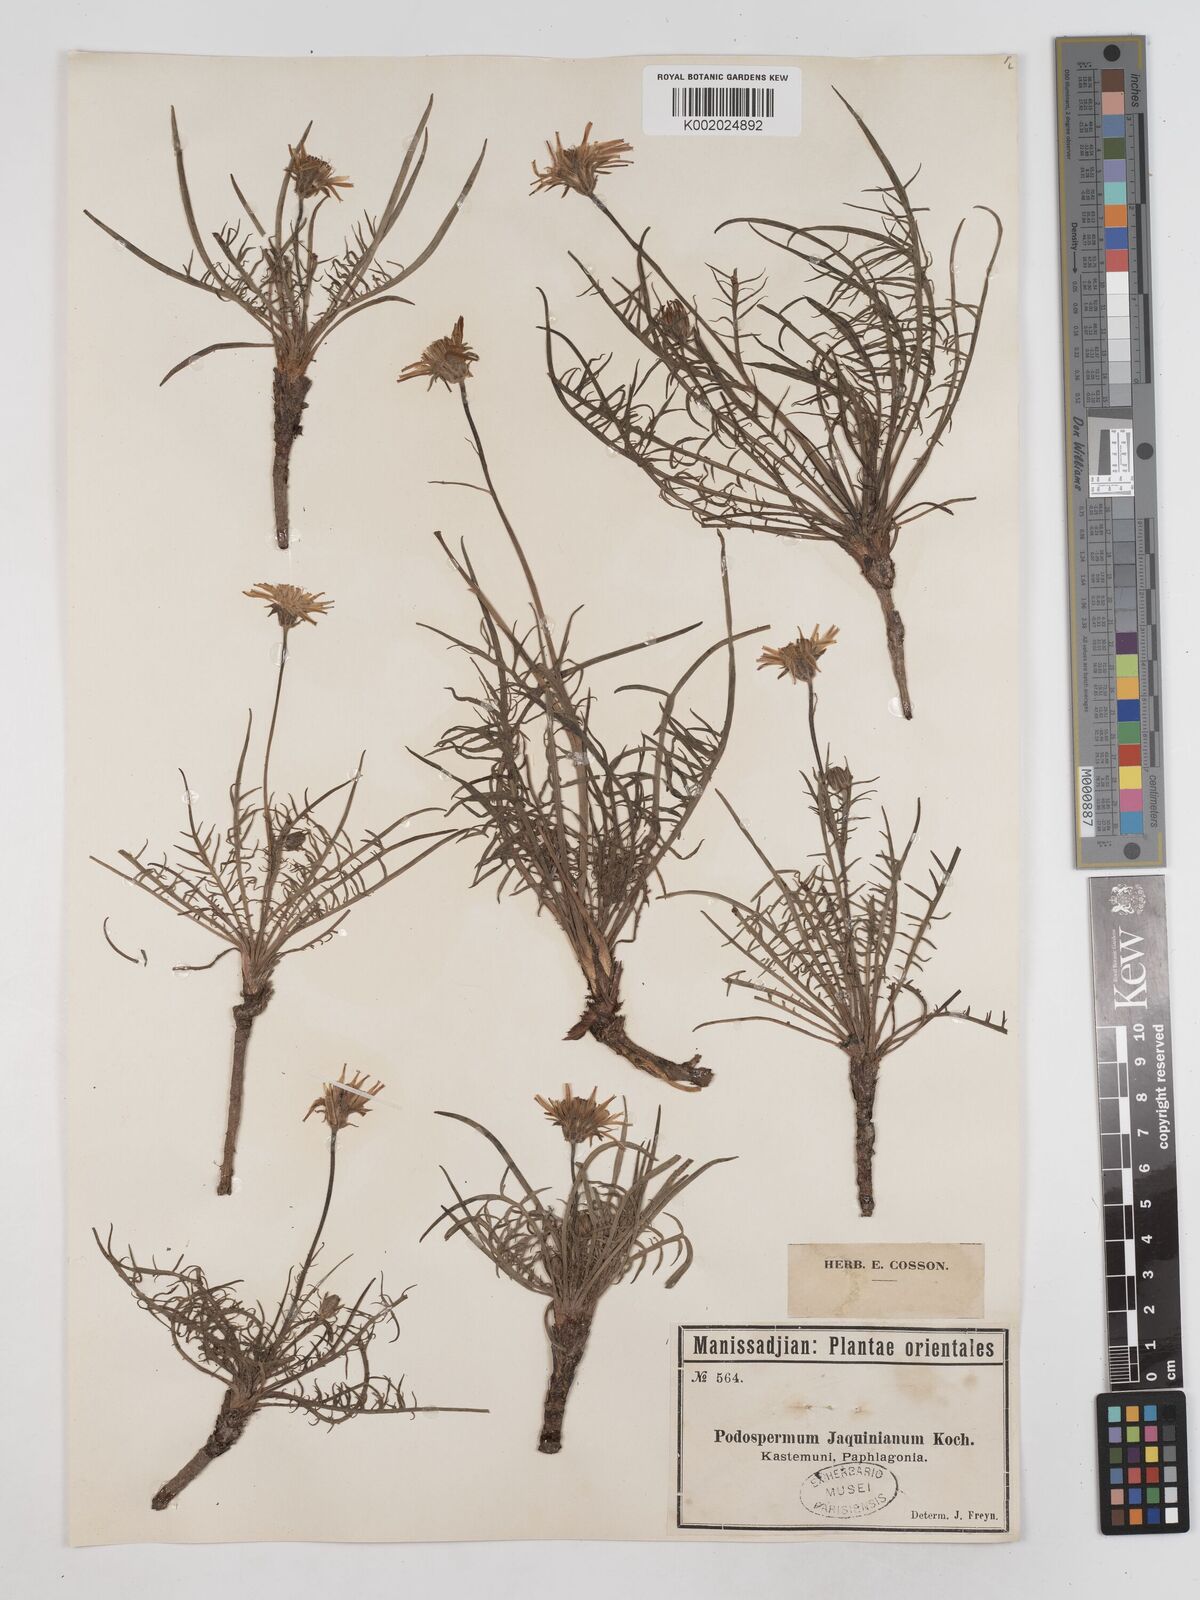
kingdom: Plantae
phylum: Tracheophyta
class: Magnoliopsida
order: Asterales
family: Asteraceae
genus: Scorzonera
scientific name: Scorzonera cana
